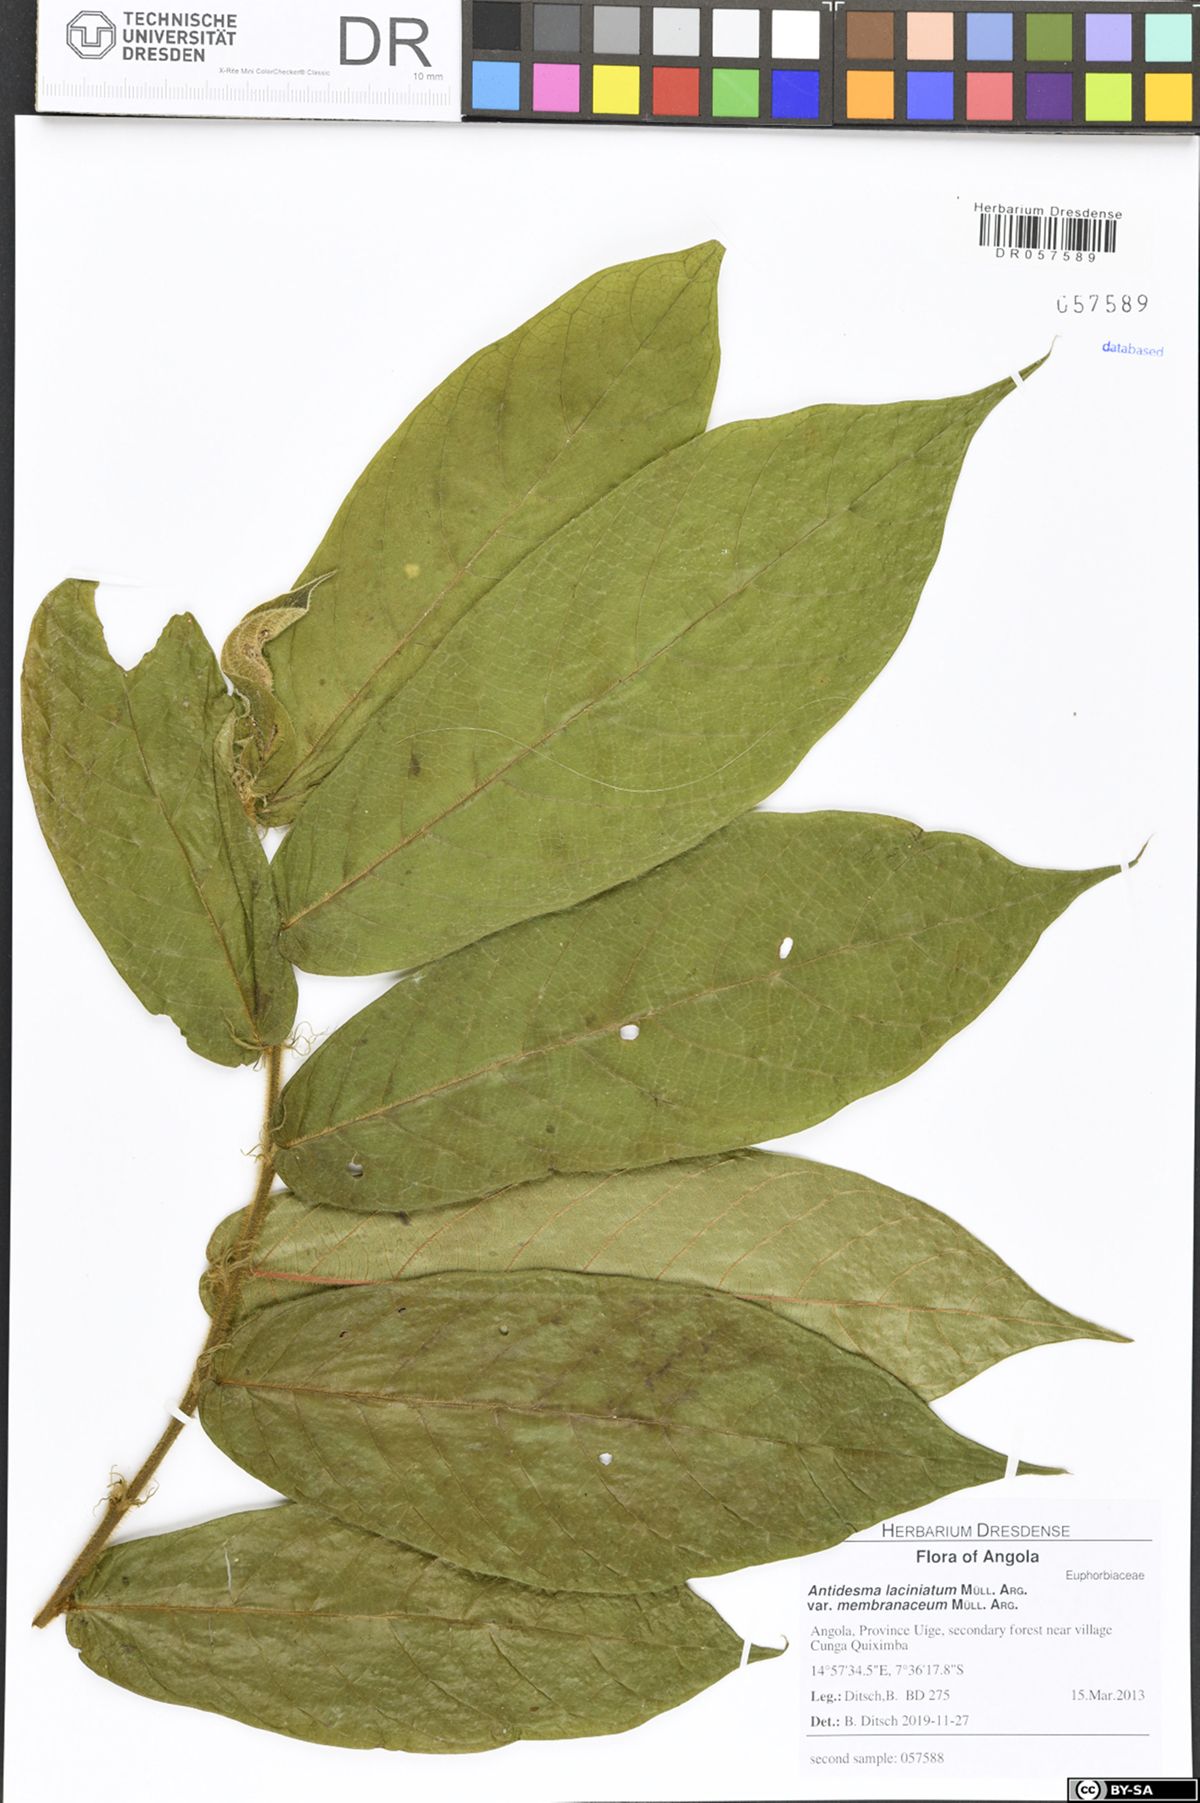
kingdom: Plantae
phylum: Tracheophyta
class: Magnoliopsida
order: Malpighiales
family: Phyllanthaceae
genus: Antidesma
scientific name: Antidesma laciniatum
